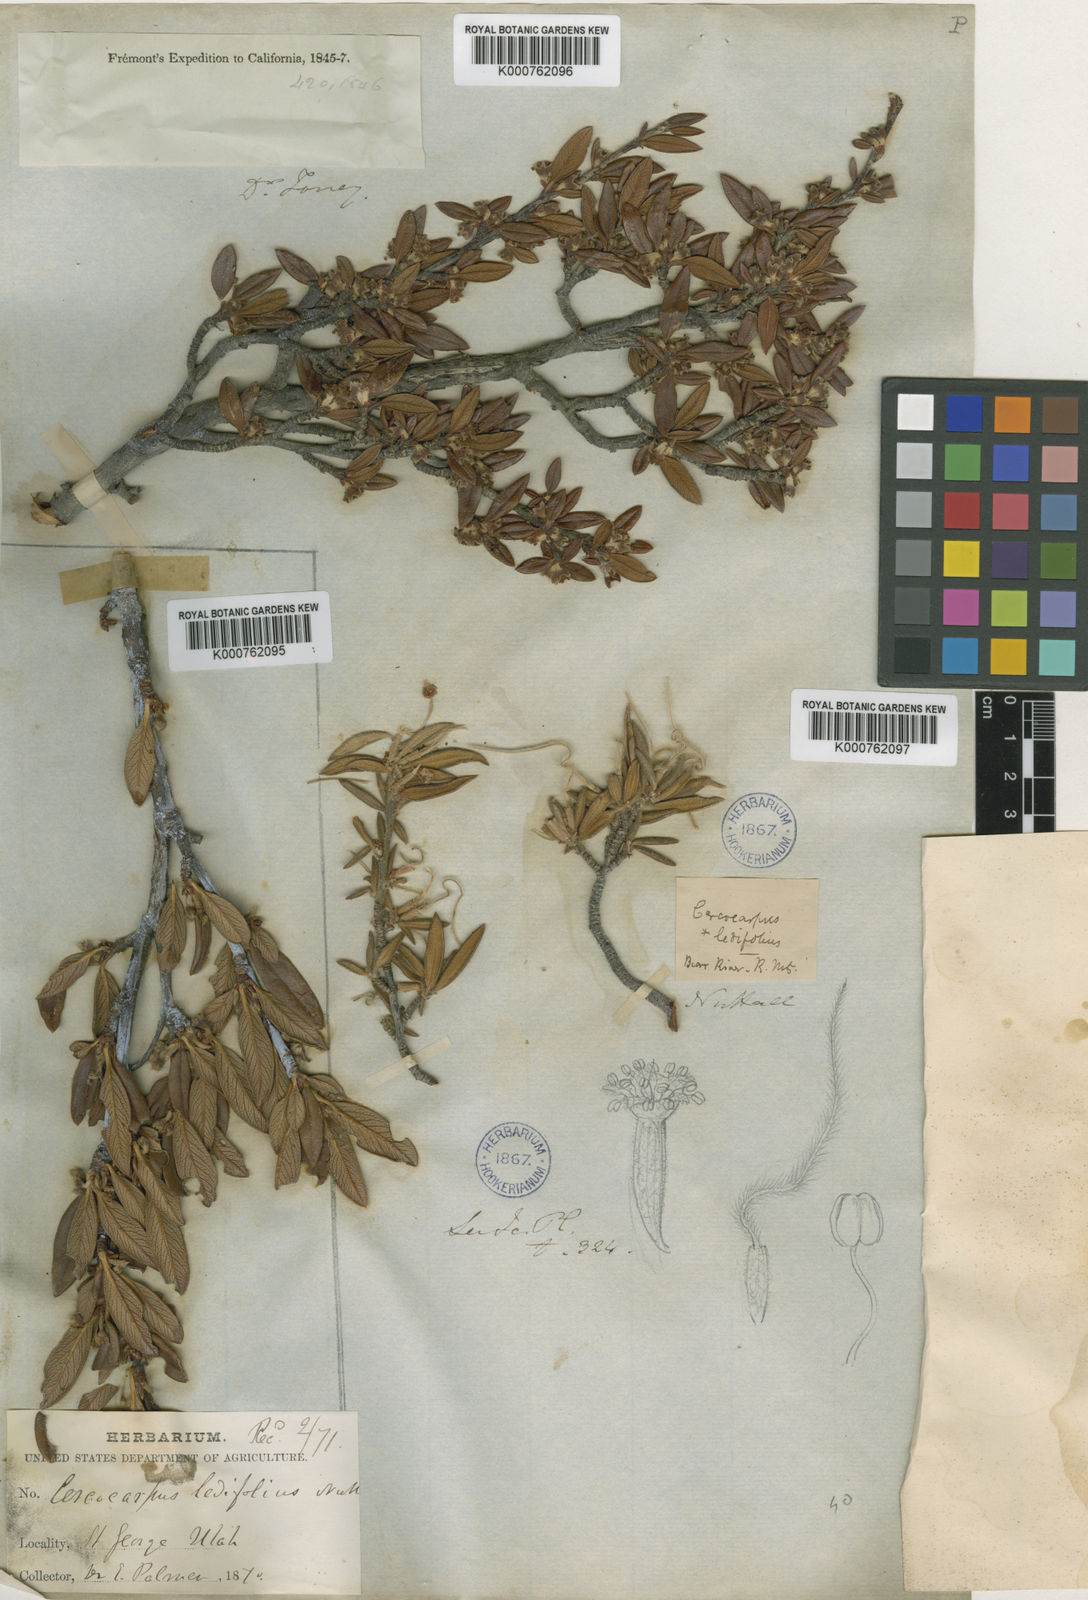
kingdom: Plantae
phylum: Tracheophyta
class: Magnoliopsida
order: Rosales
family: Rosaceae
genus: Cercocarpus
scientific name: Cercocarpus breviflorus
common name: Wright's mountain-mahogany
